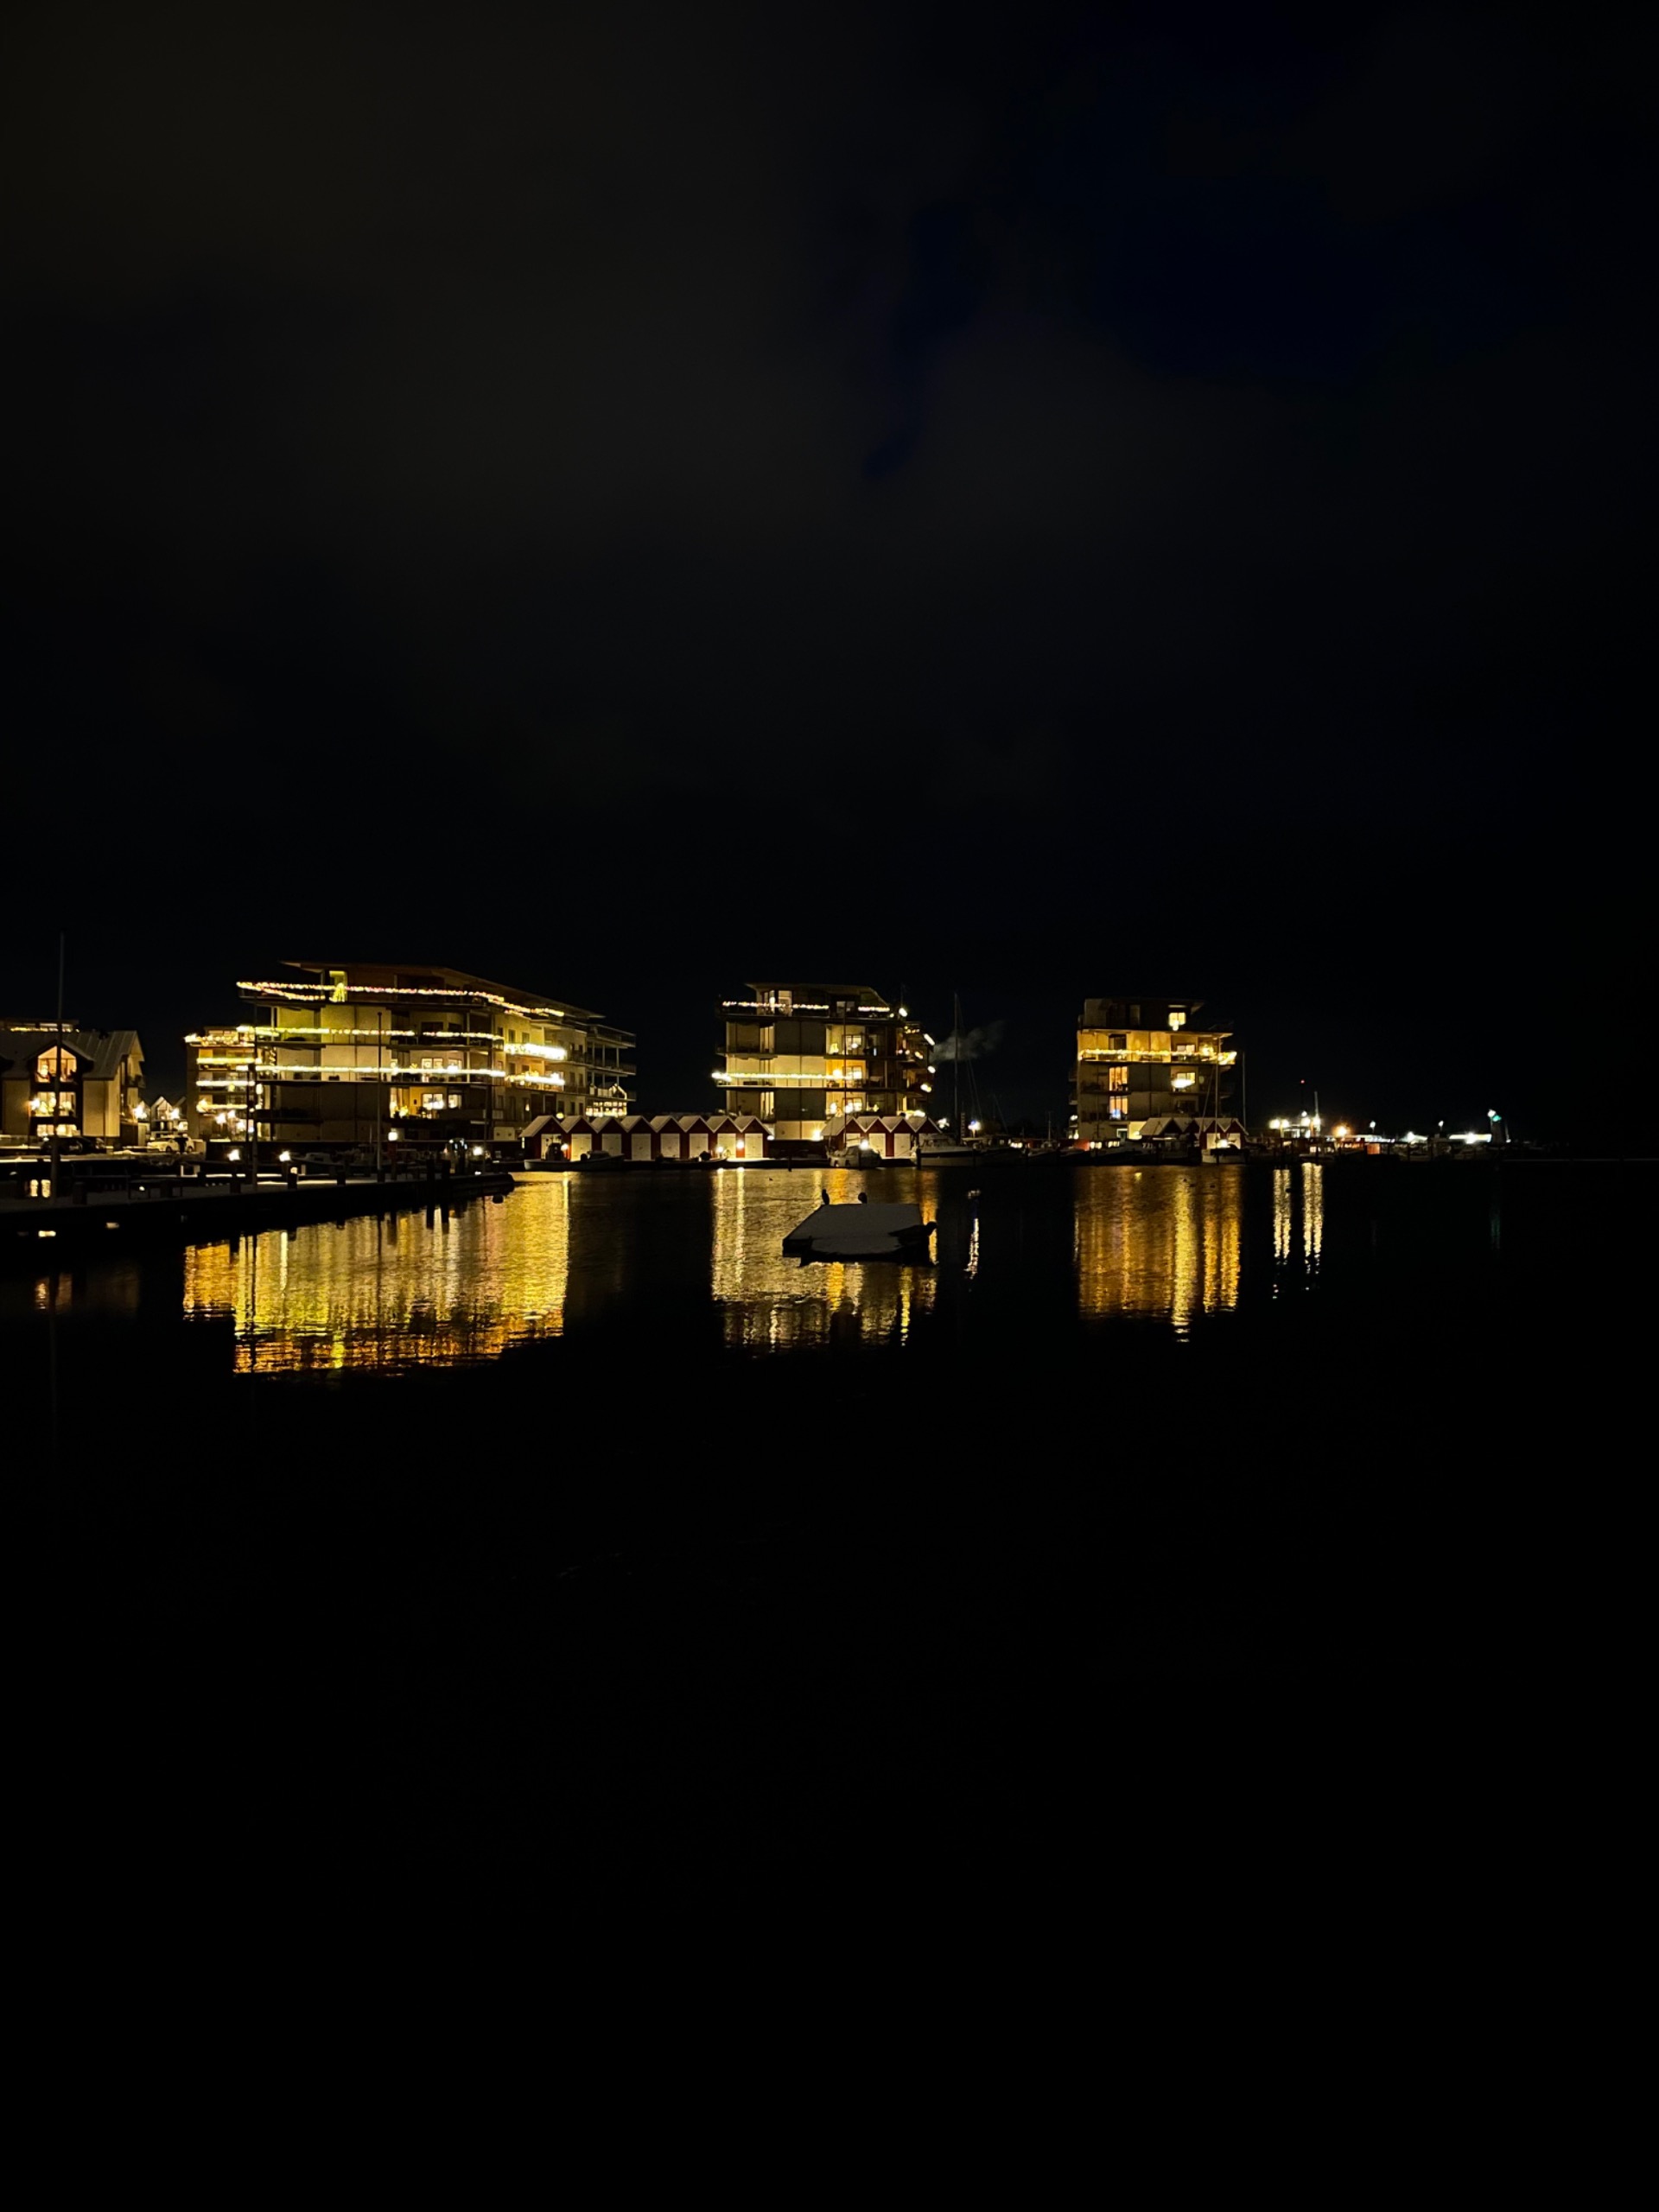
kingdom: Animalia
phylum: Chordata
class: Mammalia
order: Carnivora
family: Phocidae
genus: Phoca
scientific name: Phoca vitulina
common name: Spættet sæl
